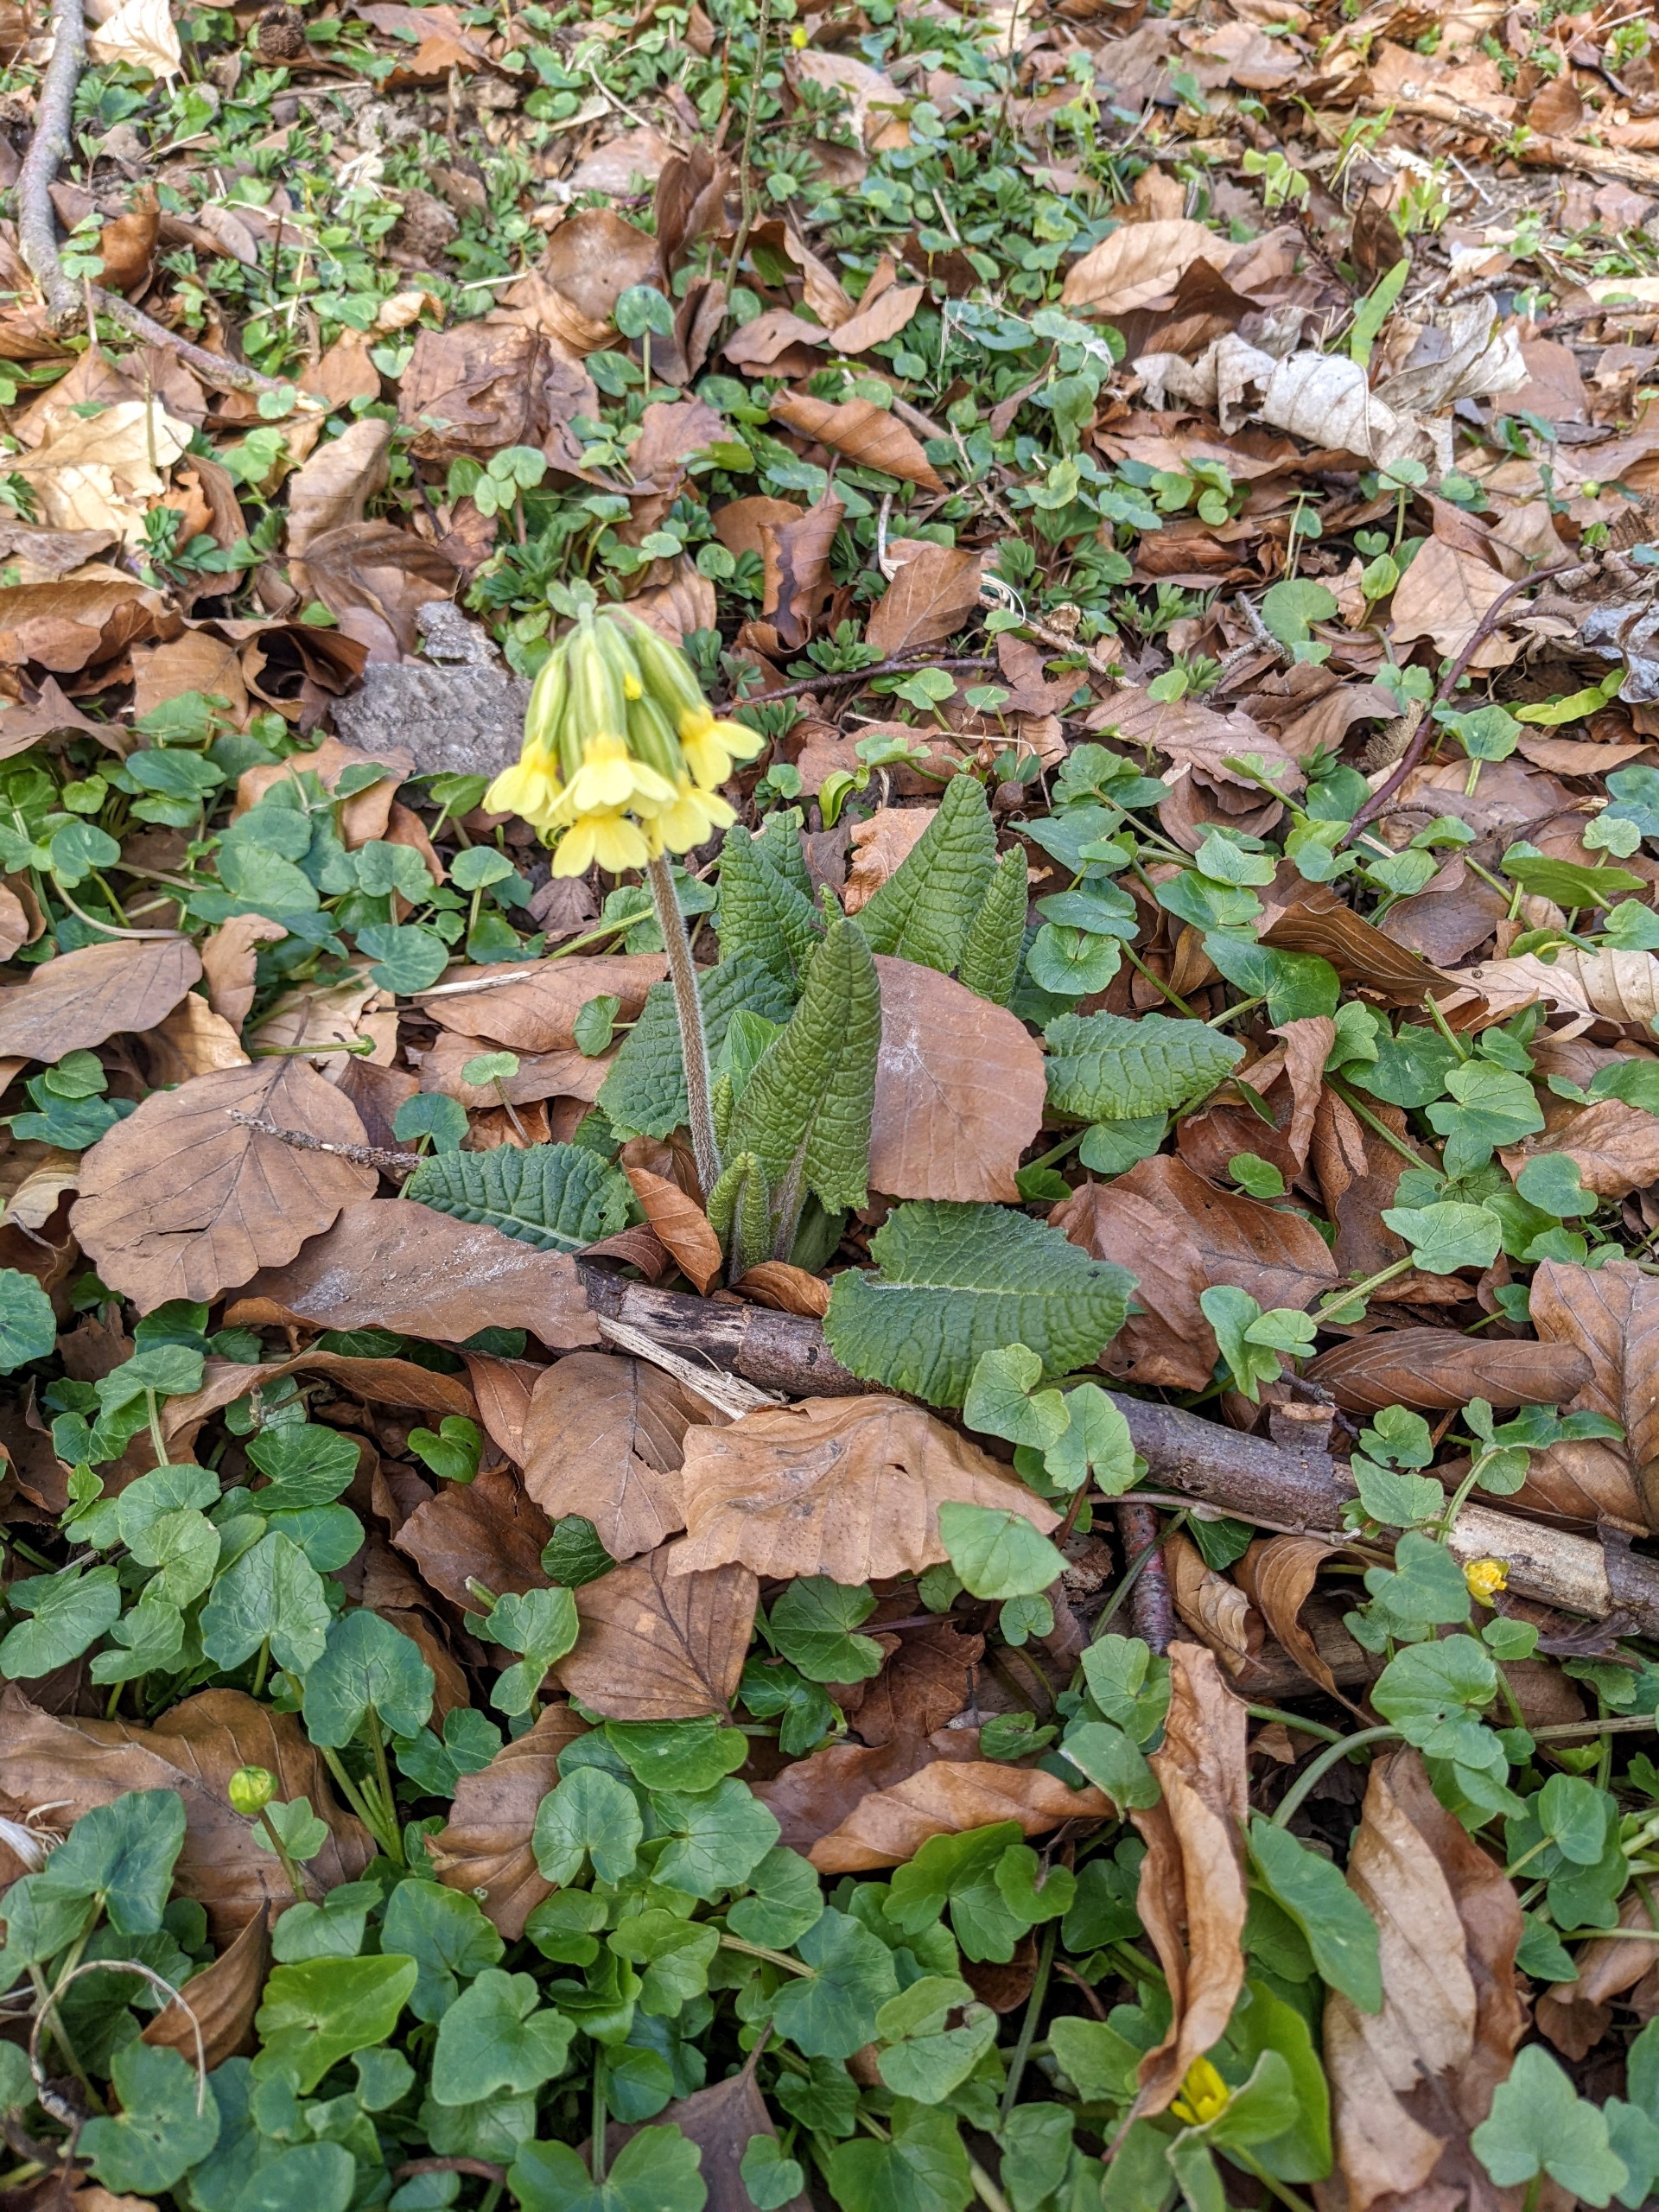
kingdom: Plantae
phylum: Tracheophyta
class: Magnoliopsida
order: Ericales
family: Primulaceae
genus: Primula
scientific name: Primula elatior
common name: Fladkravet kodriver
